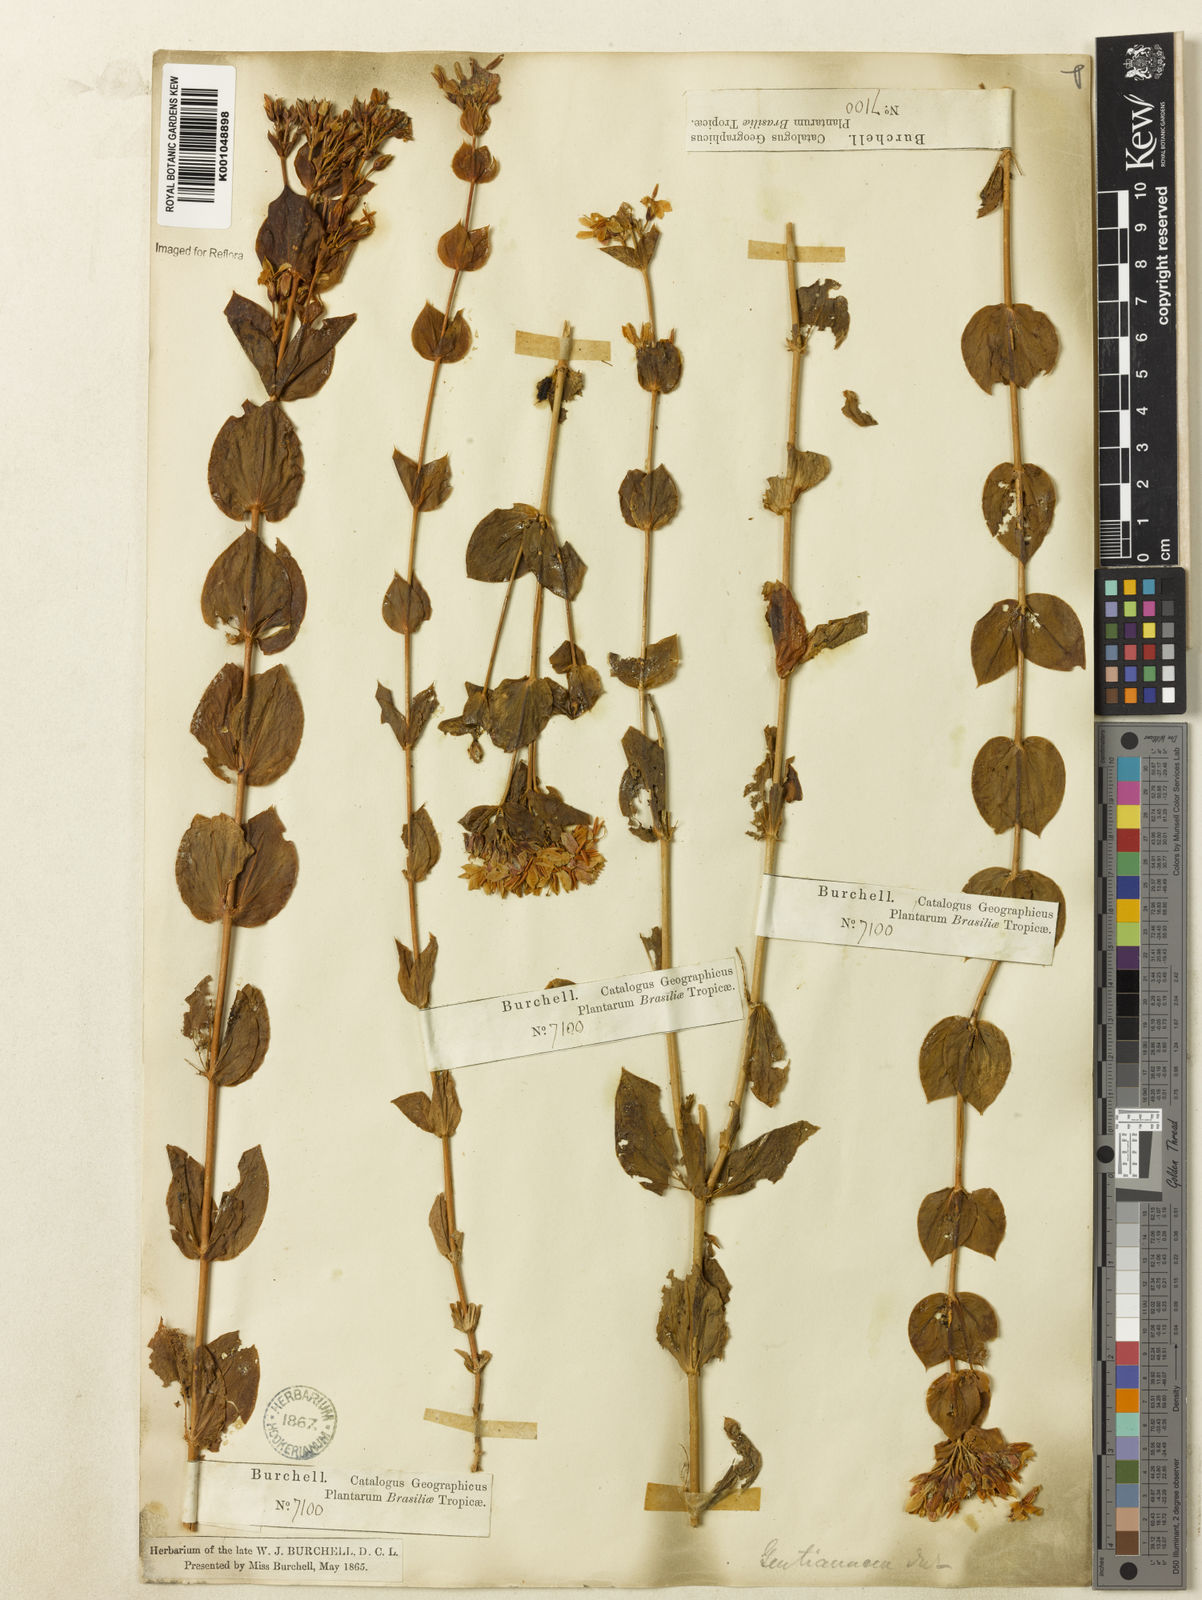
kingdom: Plantae
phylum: Tracheophyta
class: Magnoliopsida
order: Gentianales
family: Gentianaceae
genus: Deianira
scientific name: Deianira cordifolia
